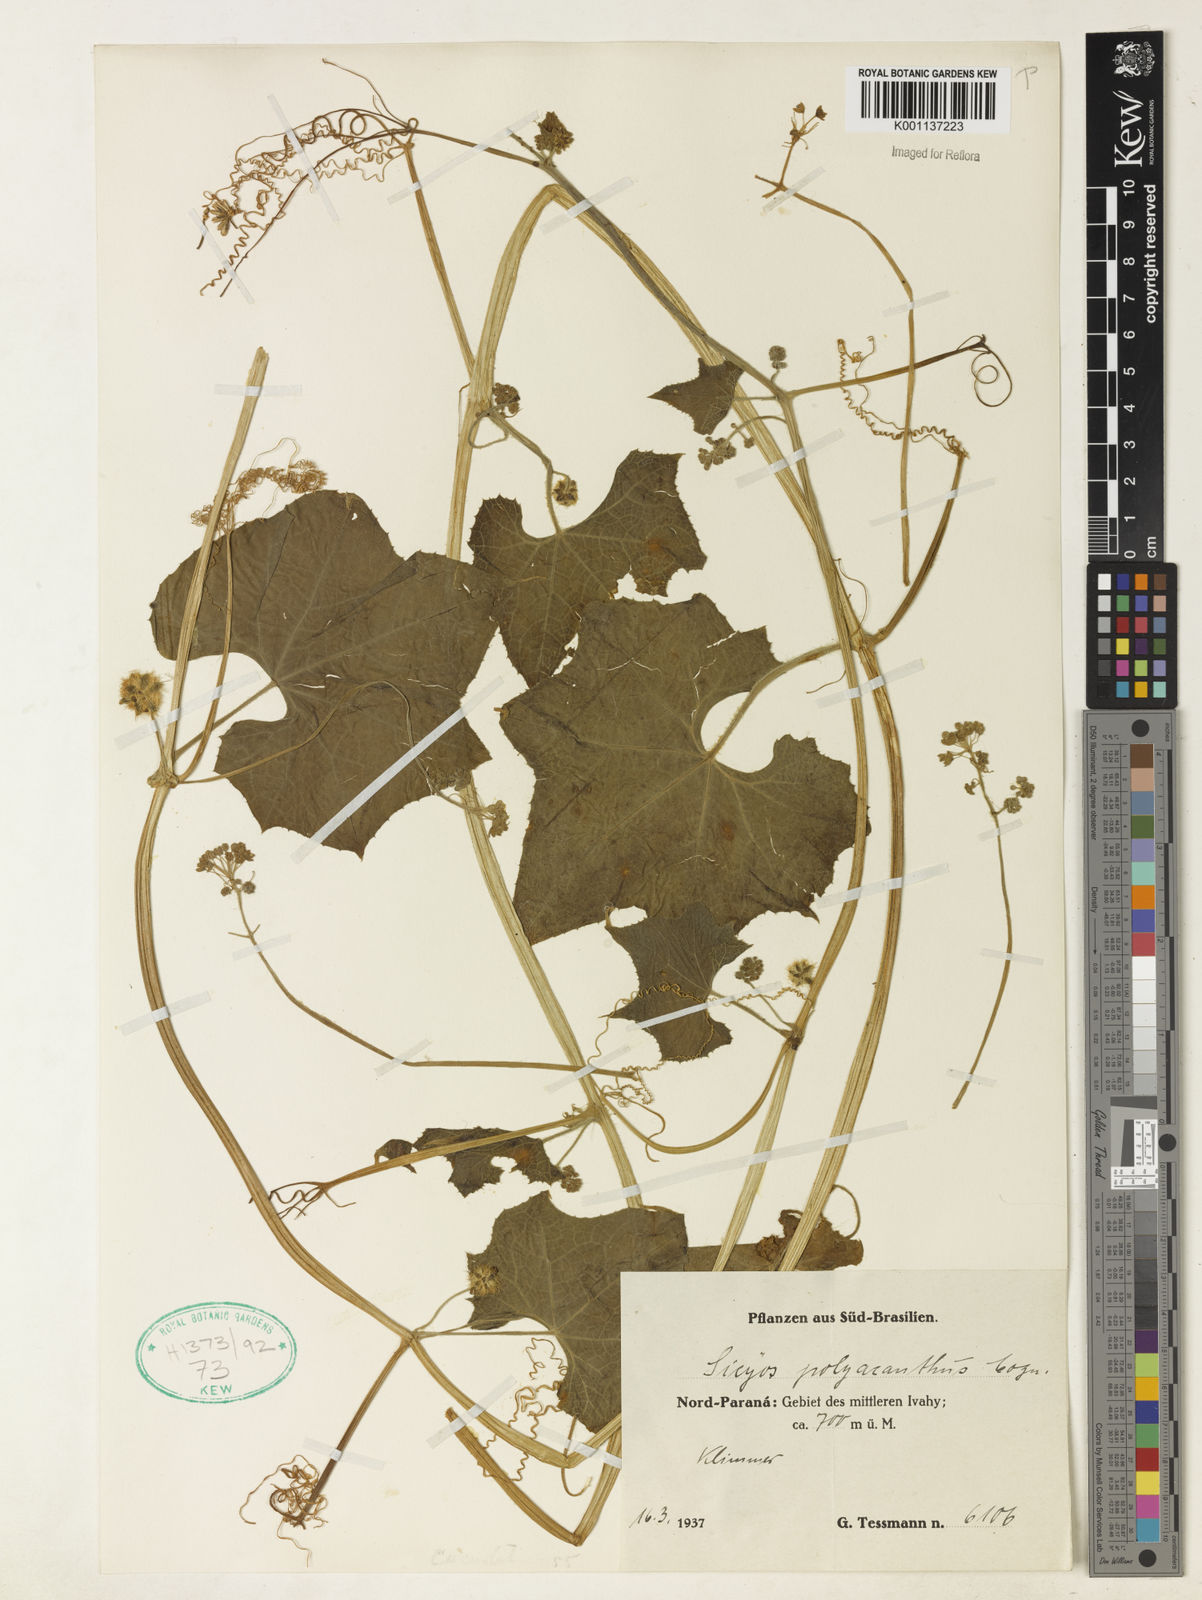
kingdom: Plantae
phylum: Tracheophyta
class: Magnoliopsida
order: Cucurbitales
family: Cucurbitaceae
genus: Sicyos
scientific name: Sicyos polyacanthos
